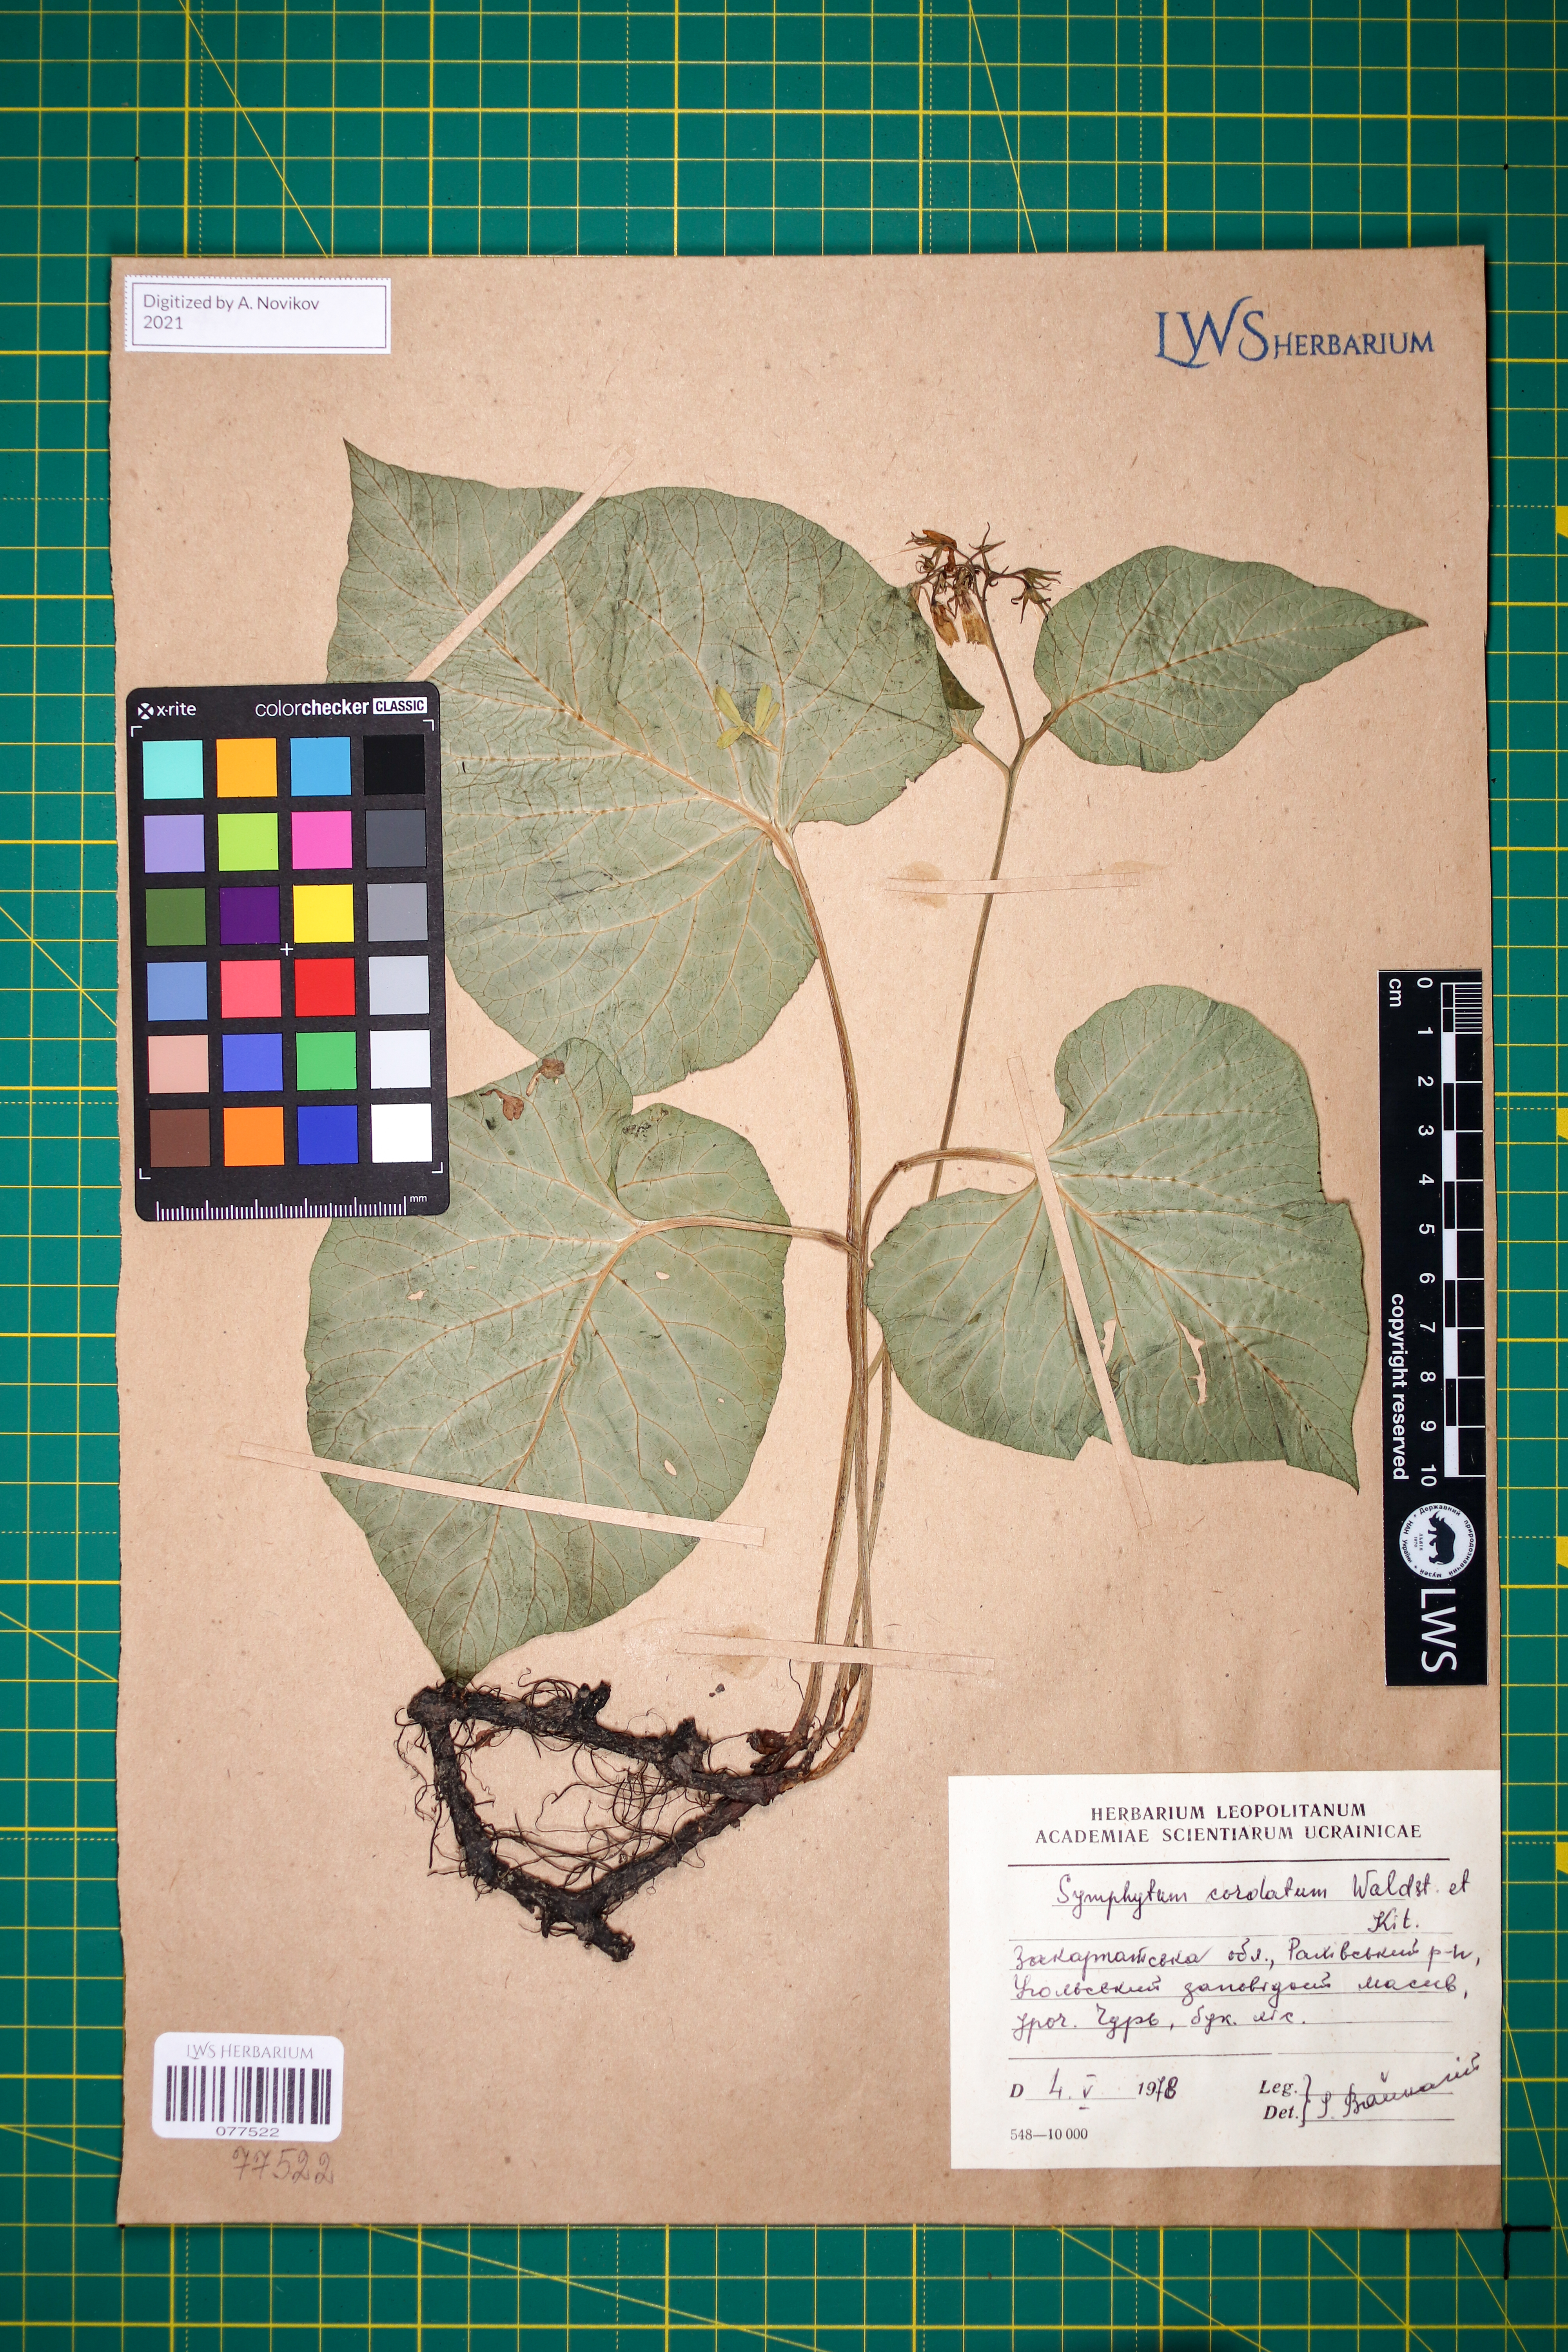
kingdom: Plantae
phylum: Tracheophyta
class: Magnoliopsida
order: Boraginales
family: Boraginaceae
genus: Symphytum
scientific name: Symphytum cordatum
